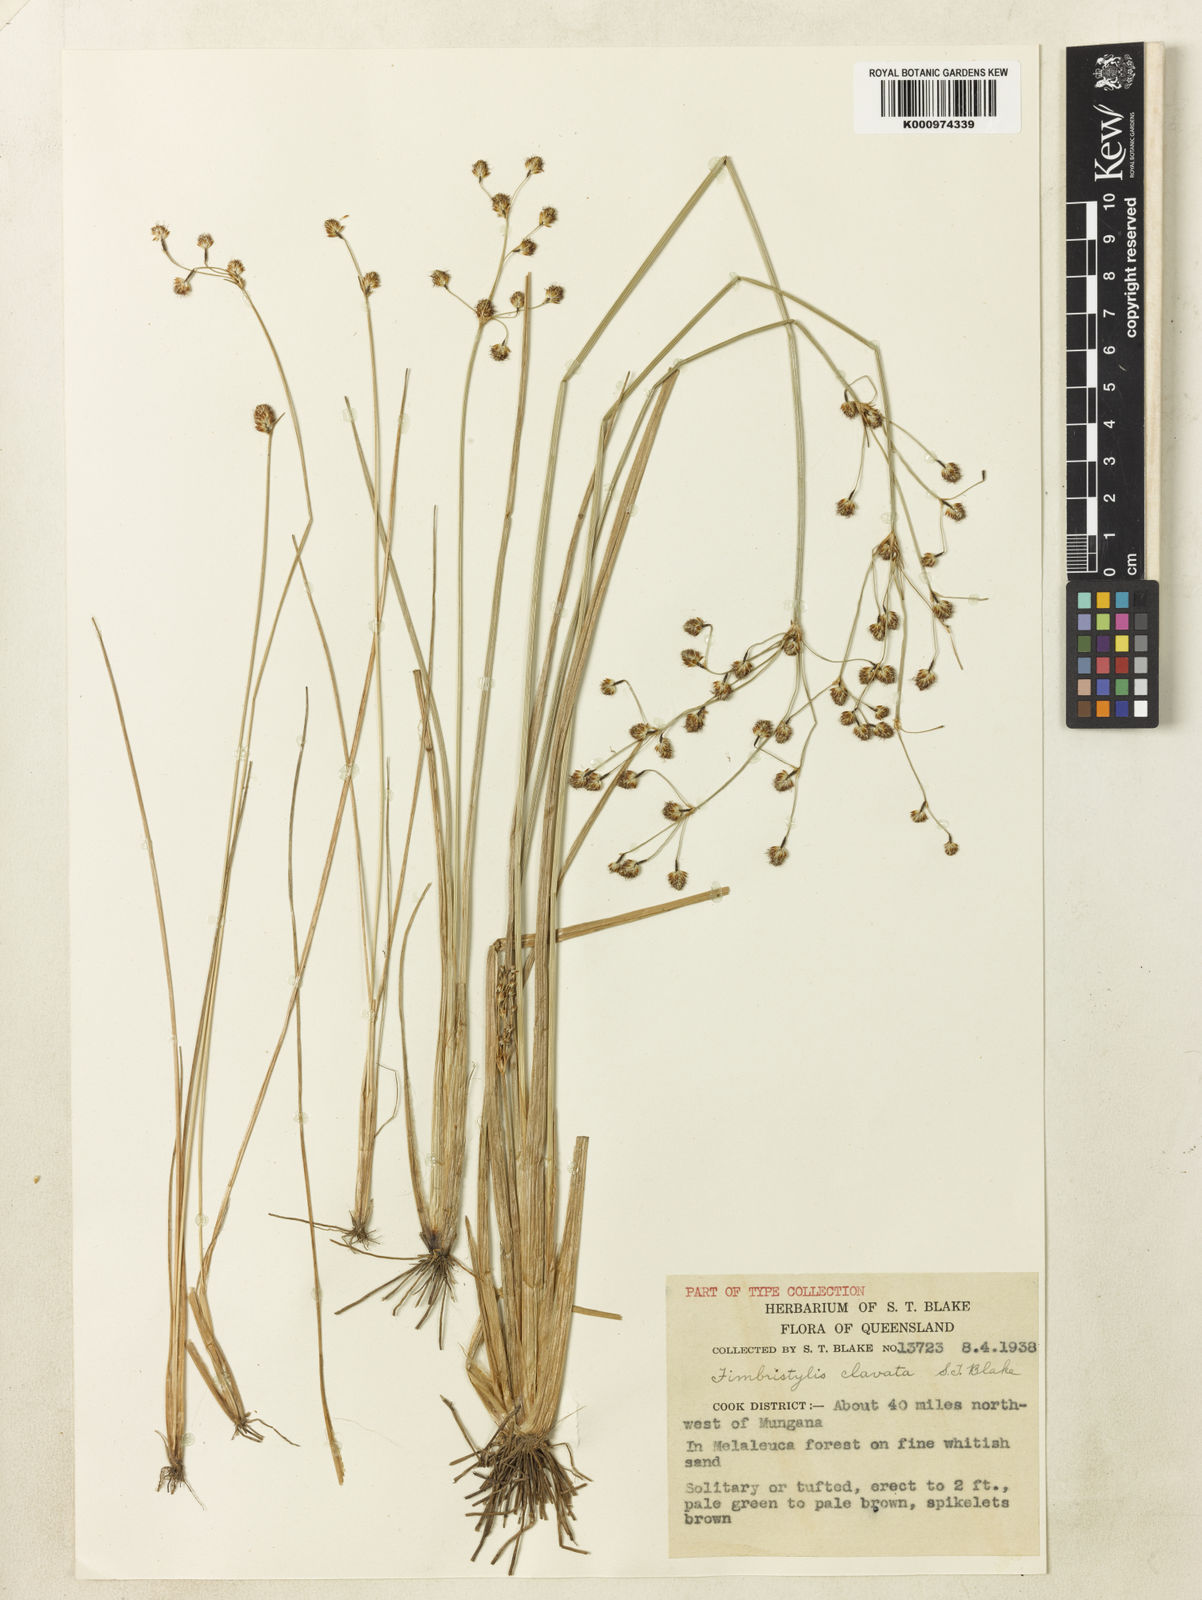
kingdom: Plantae
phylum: Tracheophyta
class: Liliopsida
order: Poales
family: Cyperaceae
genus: Fimbristylis
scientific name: Fimbristylis clavata
